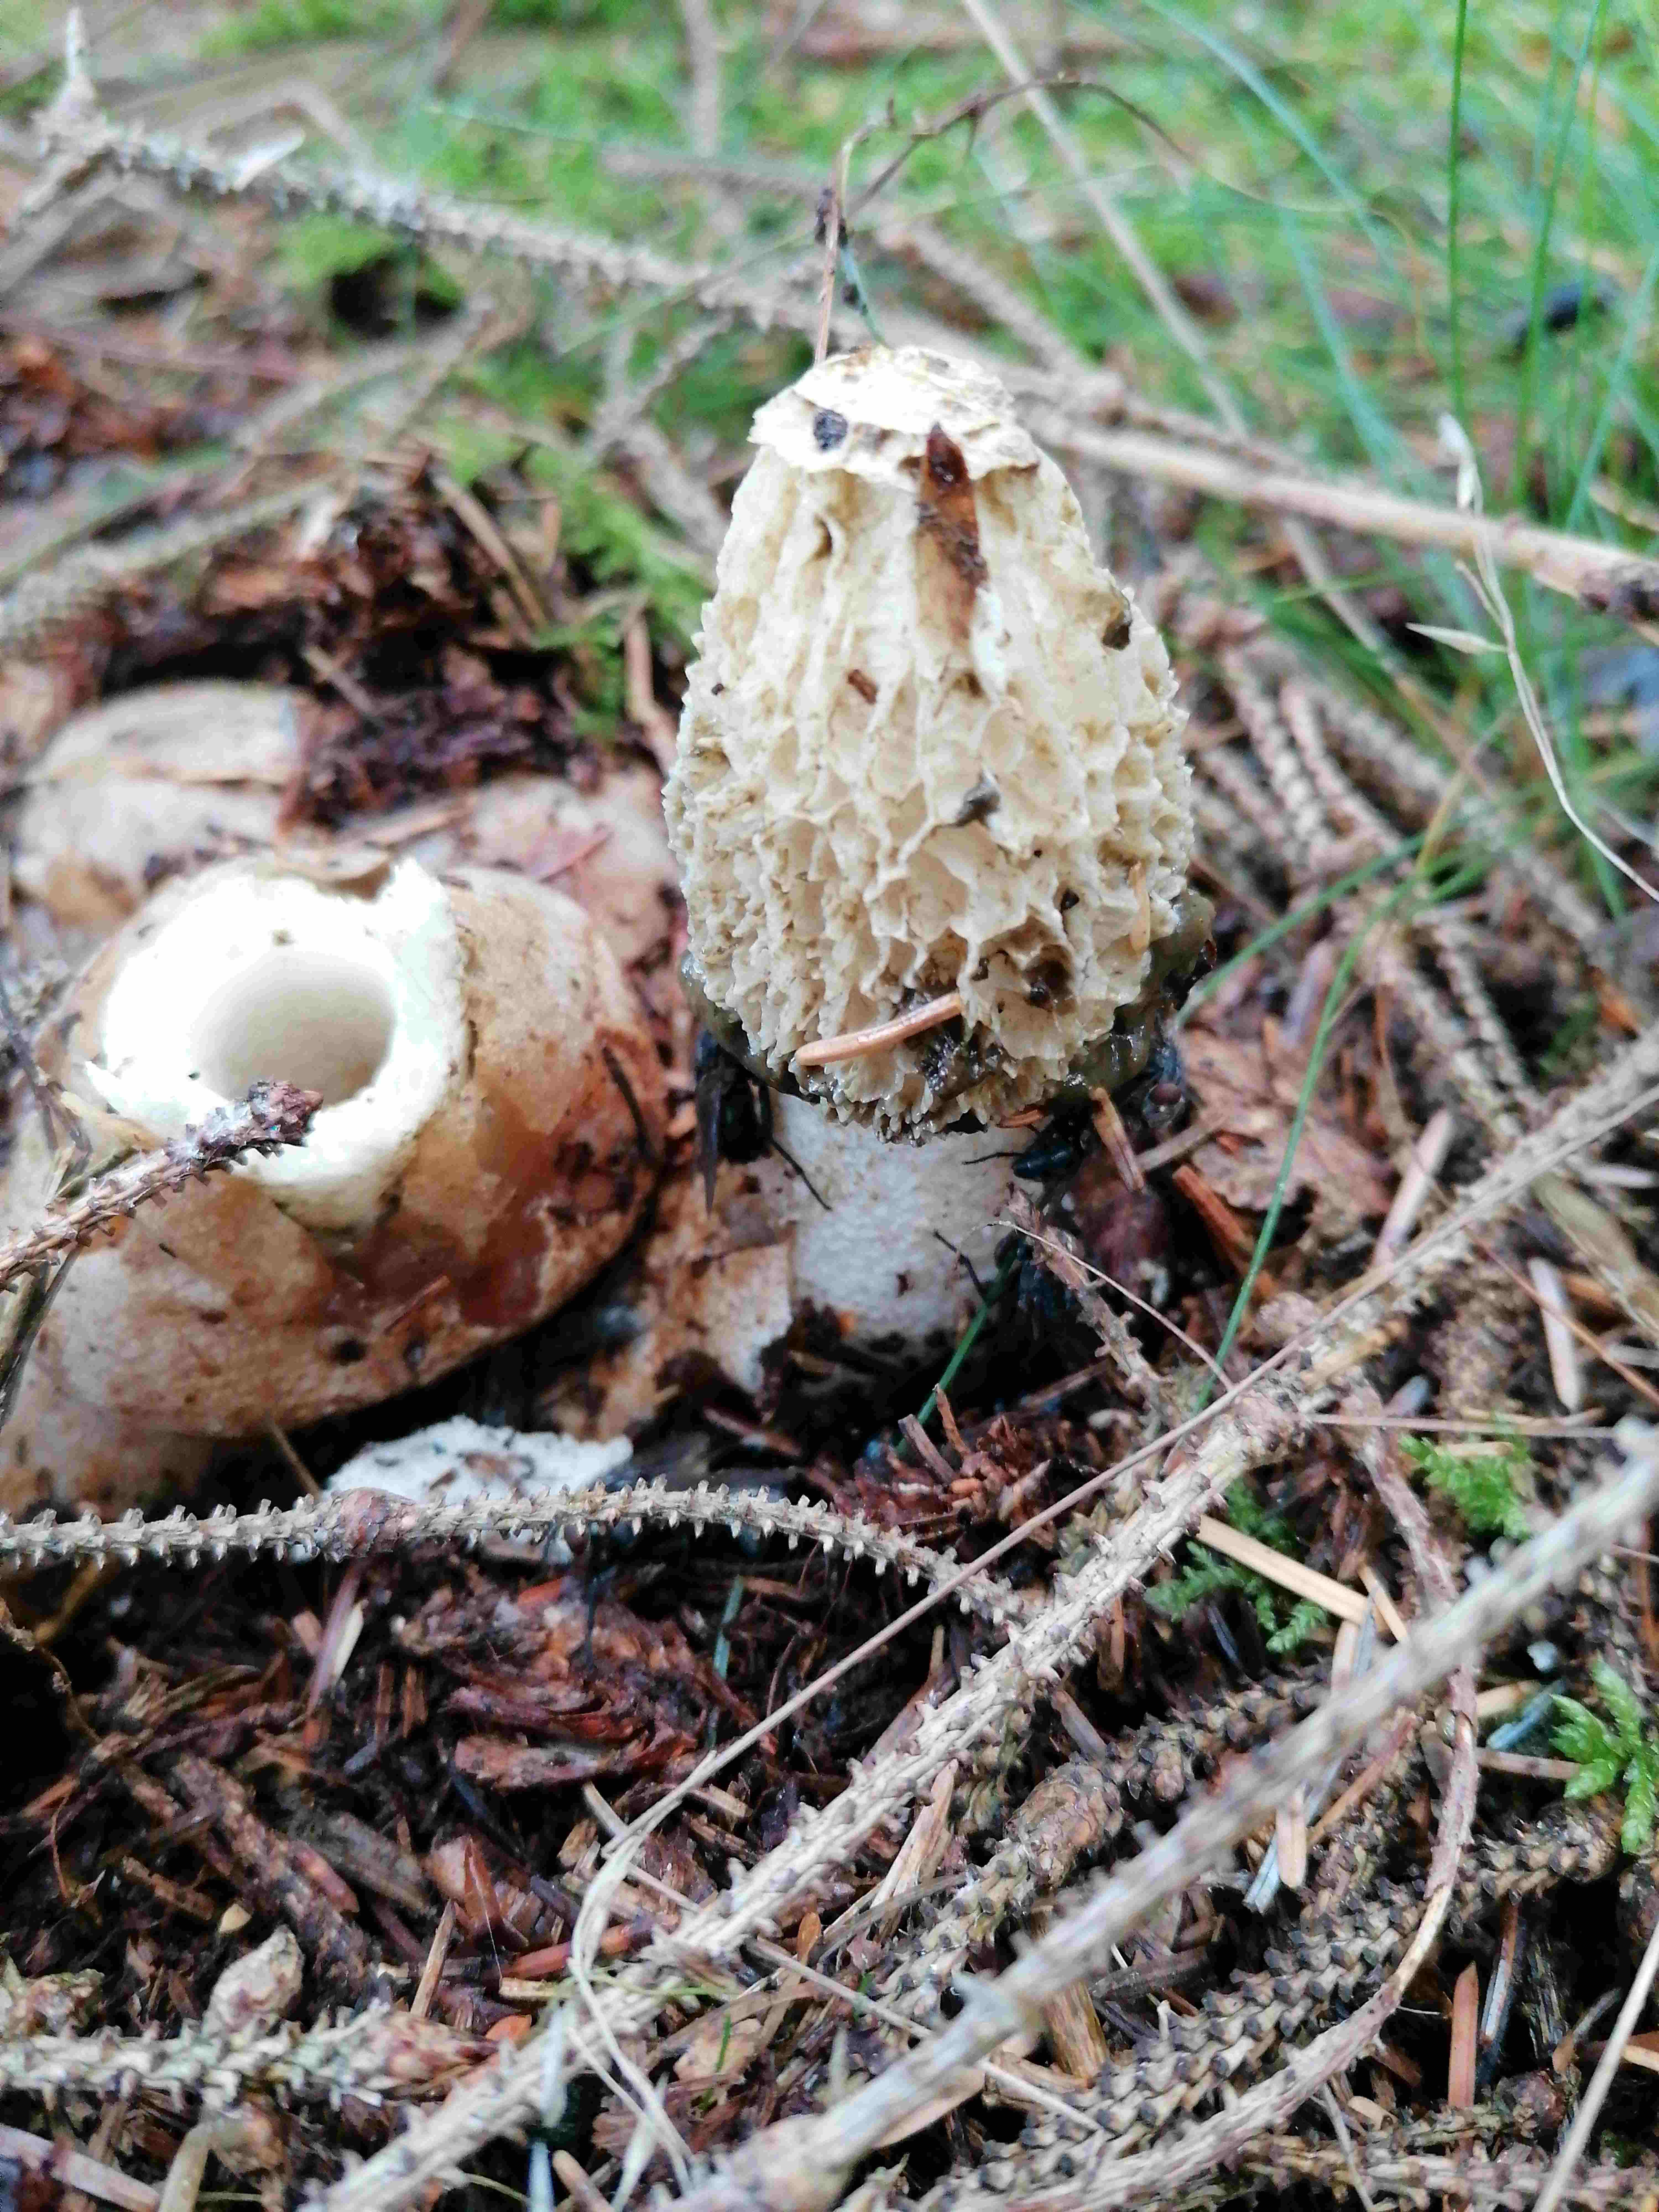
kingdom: Fungi
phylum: Basidiomycota
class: Agaricomycetes
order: Phallales
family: Phallaceae
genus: Phallus
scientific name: Phallus impudicus
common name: almindelig stinksvamp
